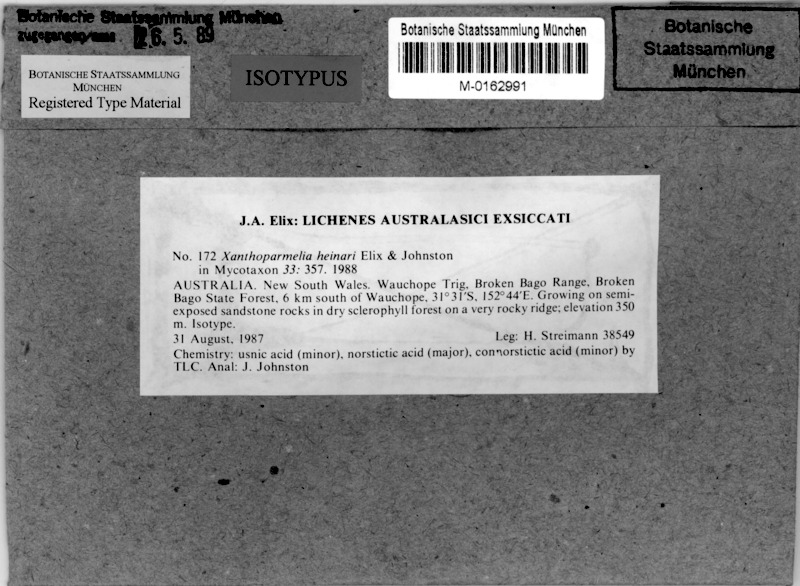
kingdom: Fungi
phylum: Ascomycota
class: Lecanoromycetes
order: Lecanorales
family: Parmeliaceae
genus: Xanthoparmelia
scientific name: Xanthoparmelia heinarii
